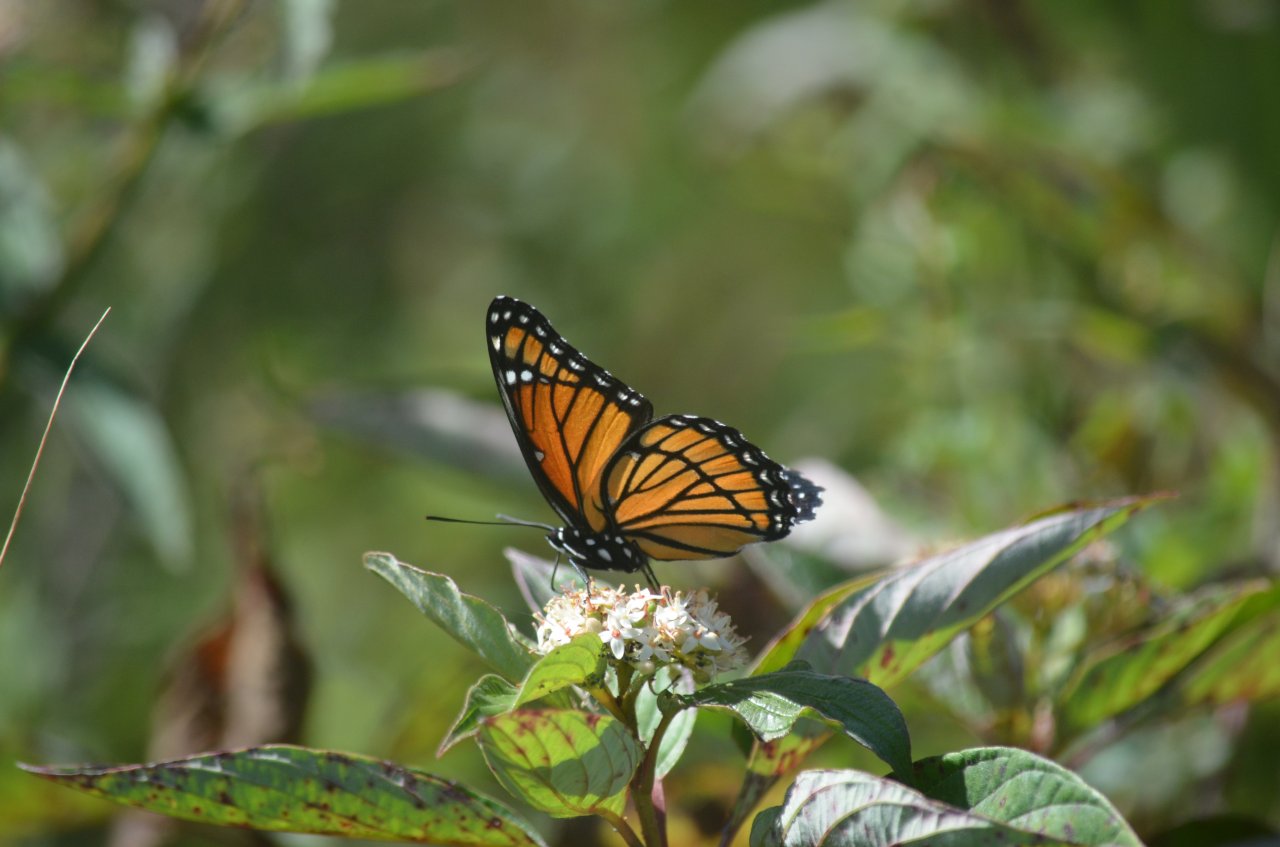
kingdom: Animalia
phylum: Arthropoda
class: Insecta
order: Lepidoptera
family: Nymphalidae
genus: Limenitis
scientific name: Limenitis archippus
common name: Viceroy
